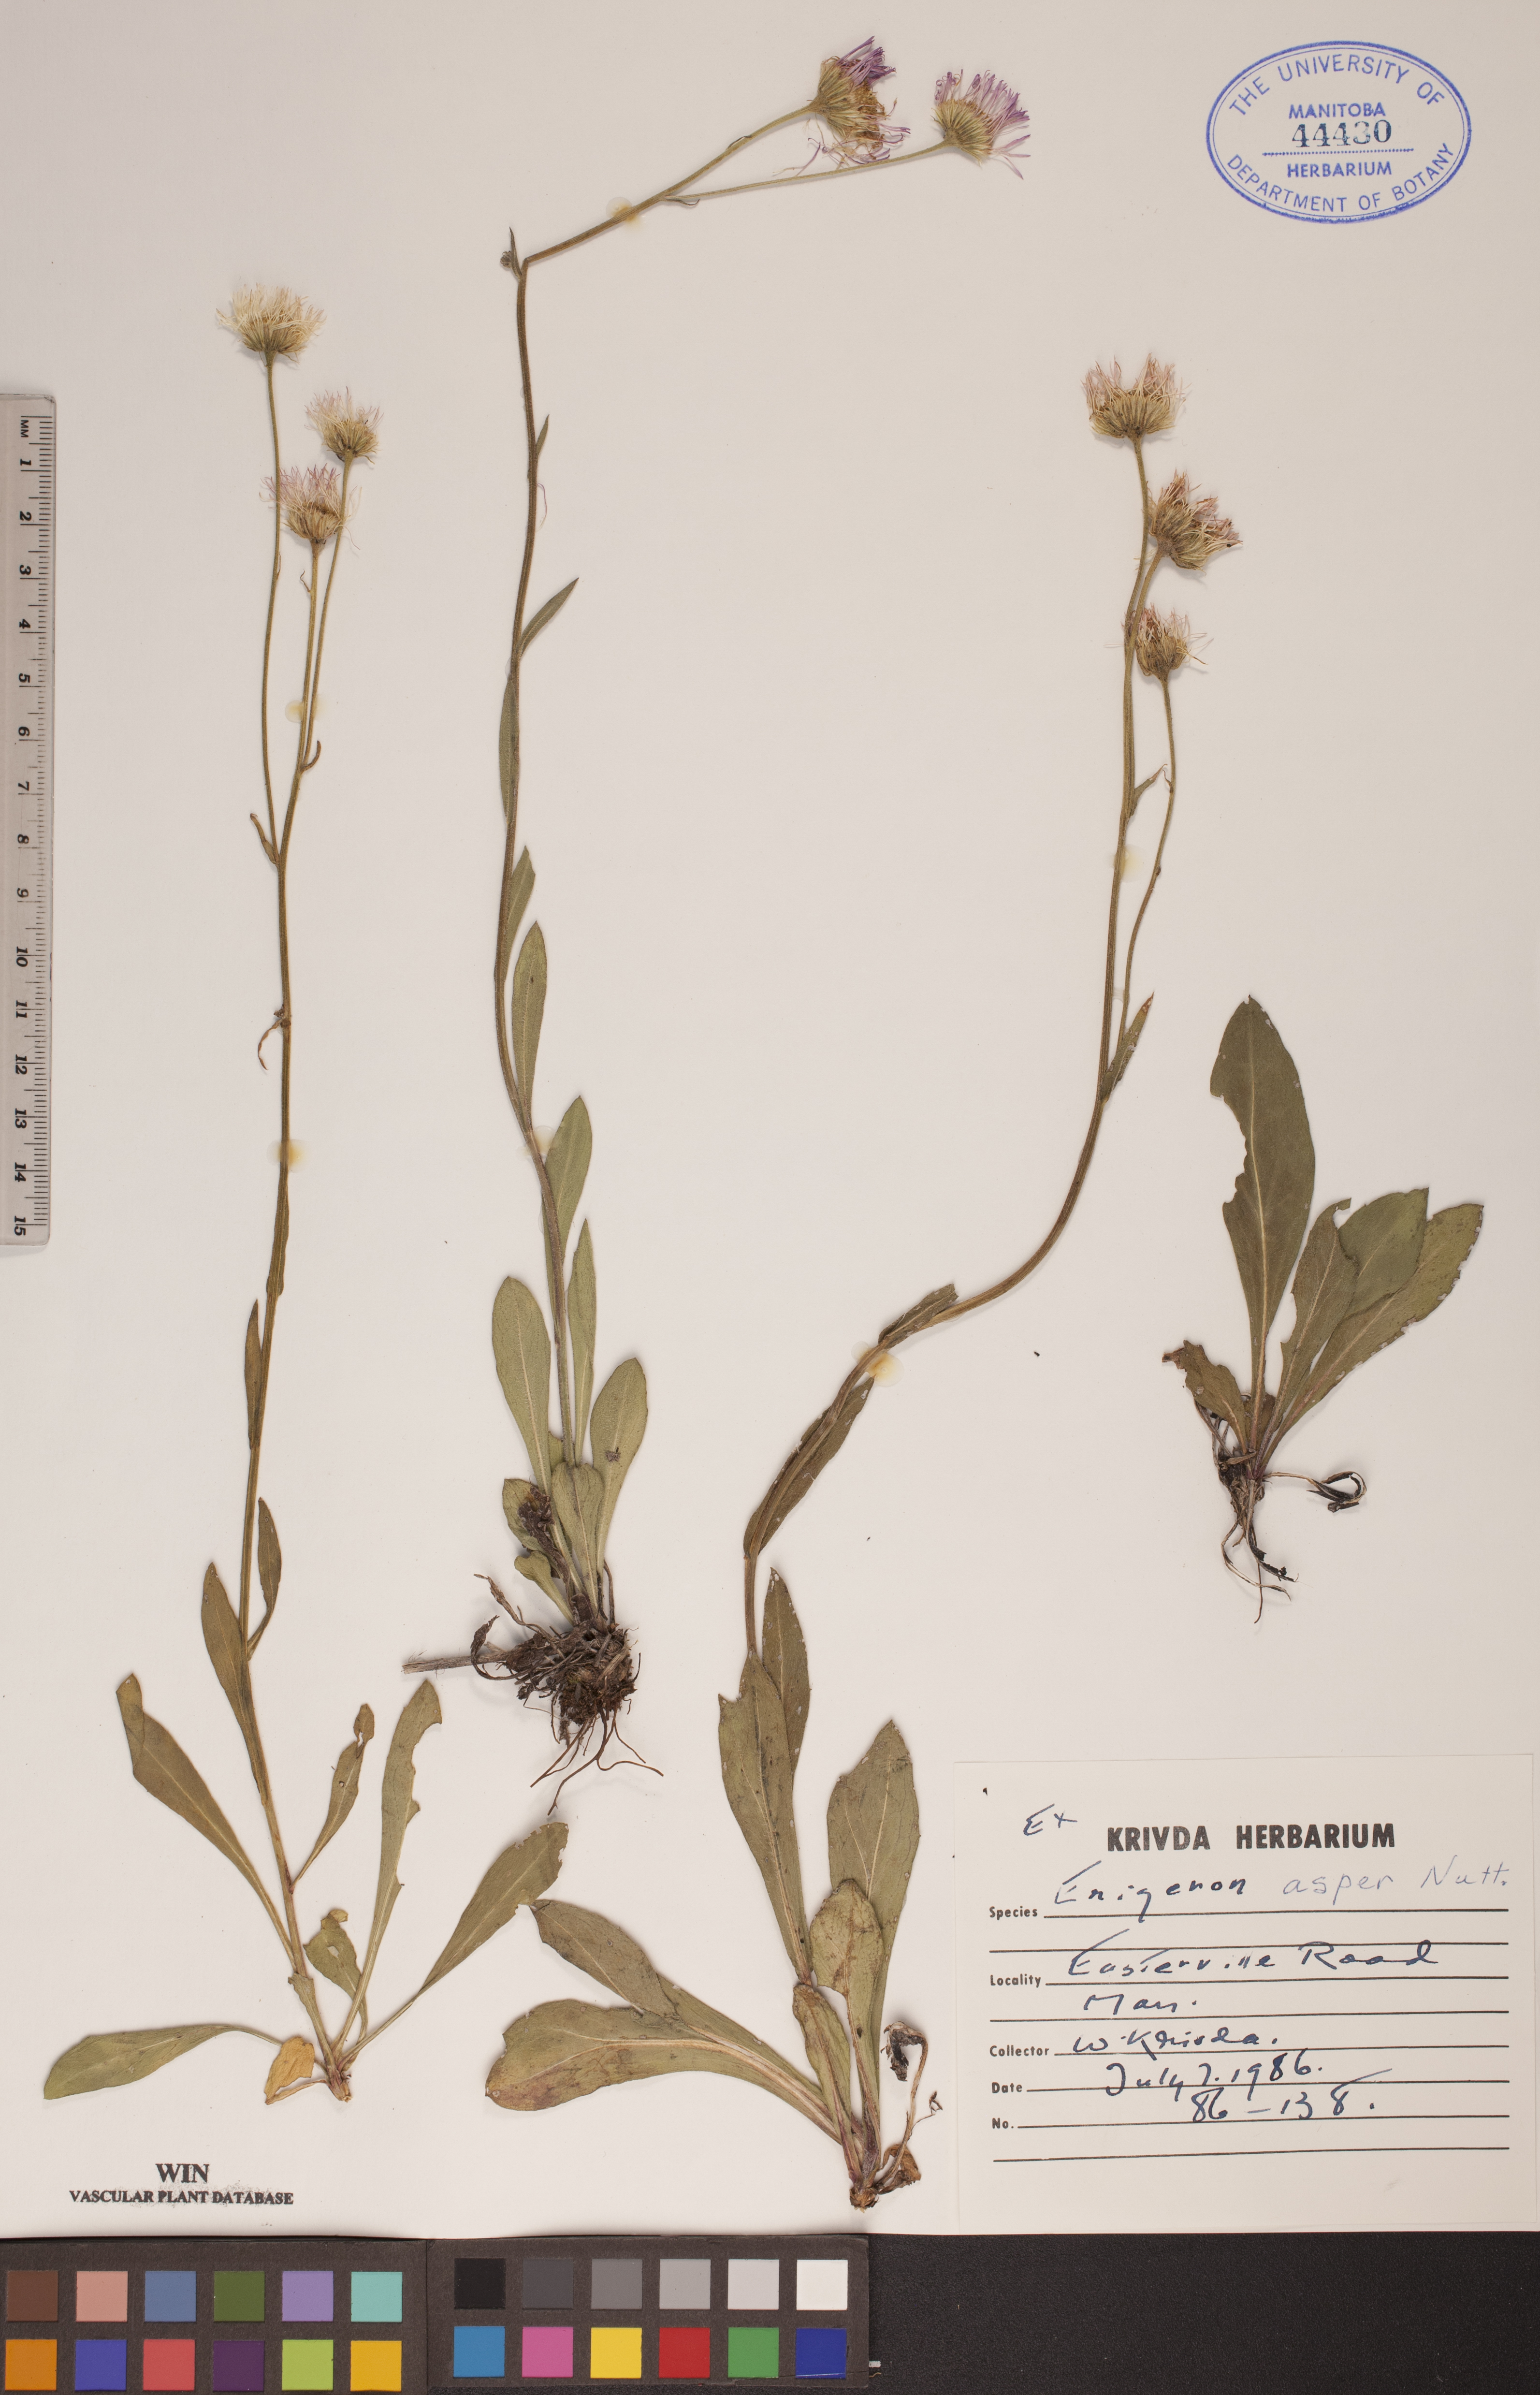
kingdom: Plantae
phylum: Tracheophyta
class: Magnoliopsida
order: Asterales
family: Asteraceae
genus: Erigeron
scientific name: Erigeron glabellus
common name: Smooth fleabane
